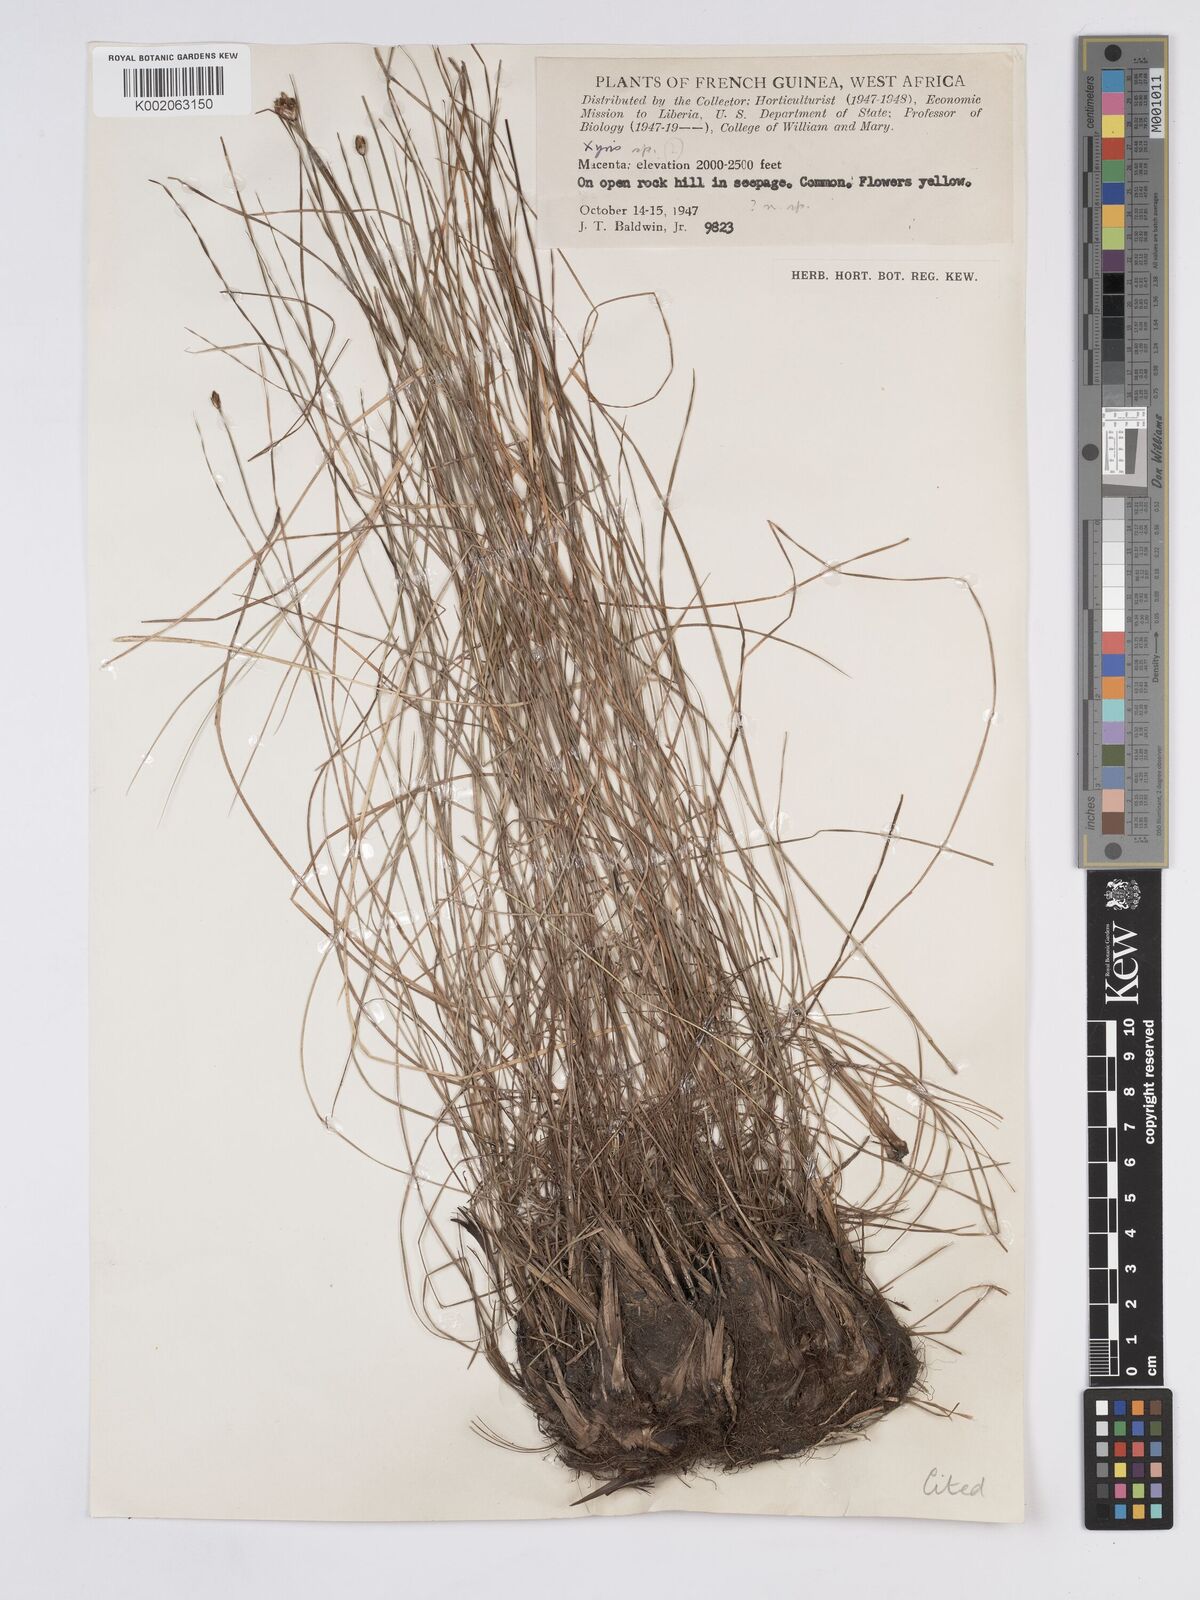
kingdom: Plantae
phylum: Tracheophyta
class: Liliopsida
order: Poales
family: Xyridaceae
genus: Xyris
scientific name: Xyris festucifolia
